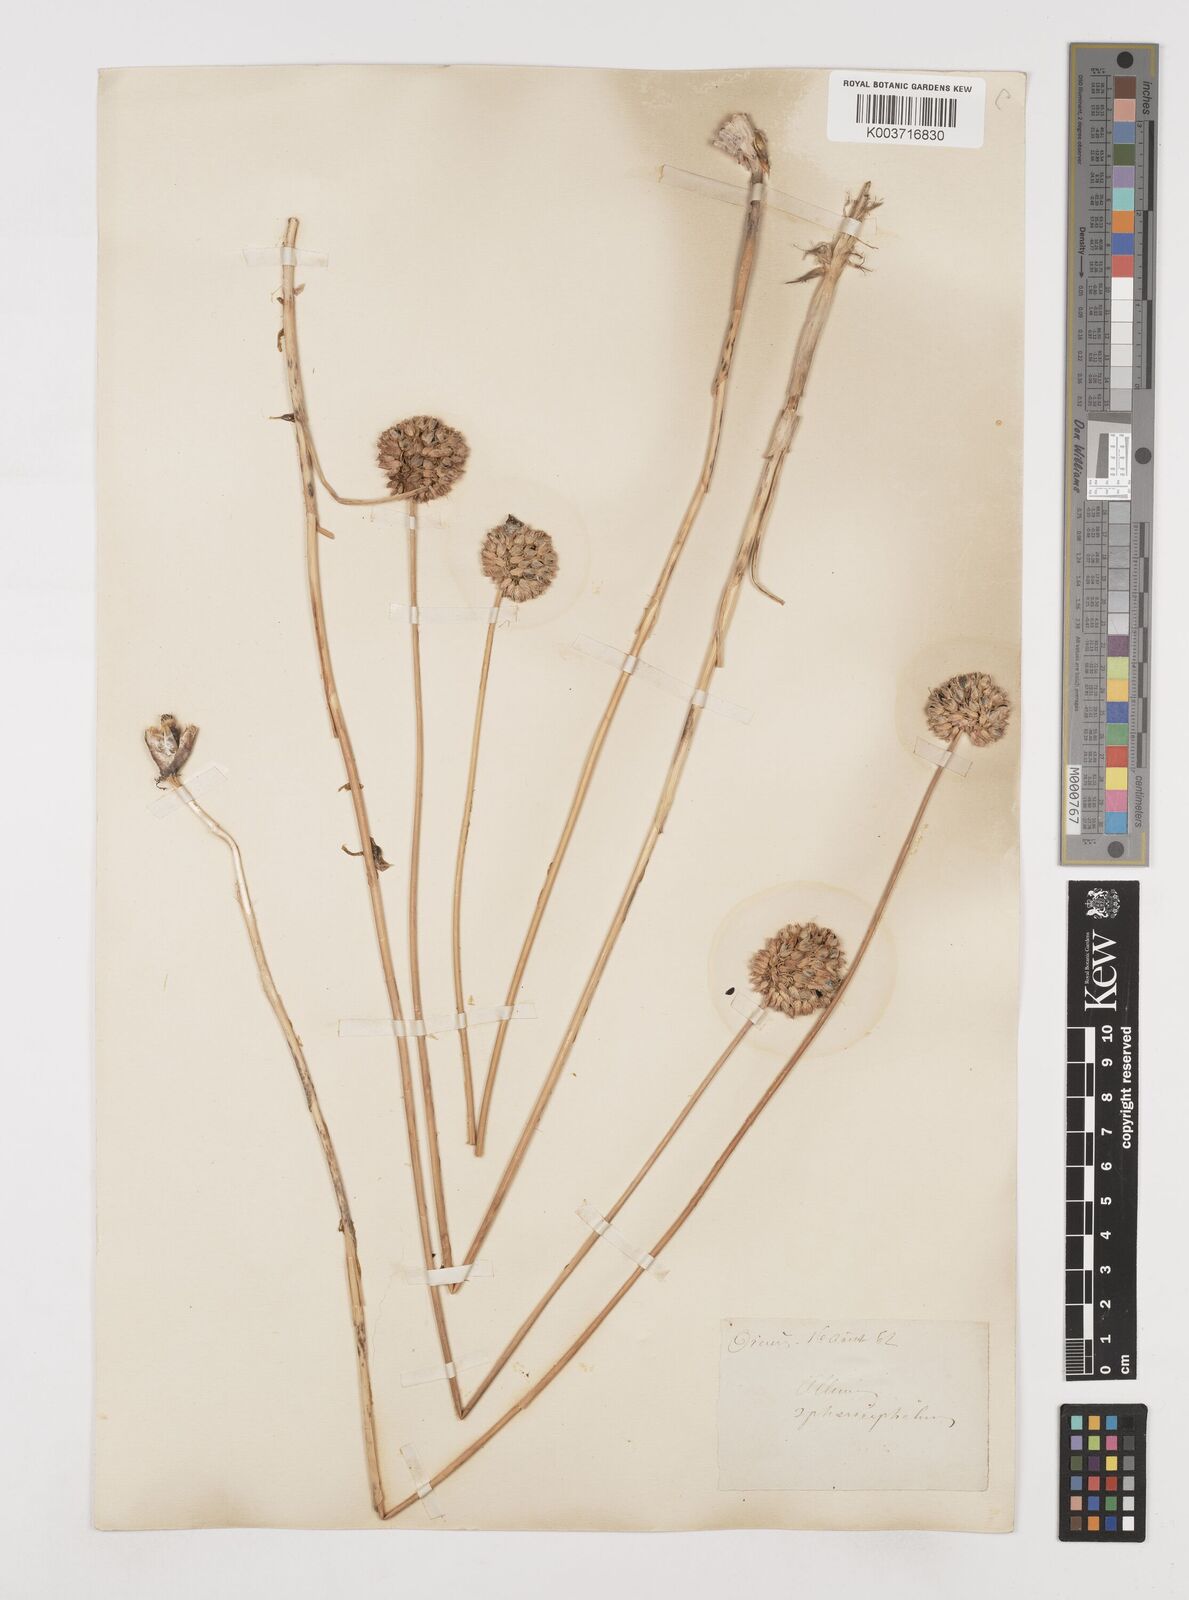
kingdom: Plantae
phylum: Tracheophyta
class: Liliopsida
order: Asparagales
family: Amaryllidaceae
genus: Allium
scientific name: Allium sphaerocephalon
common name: Round-headed leek
